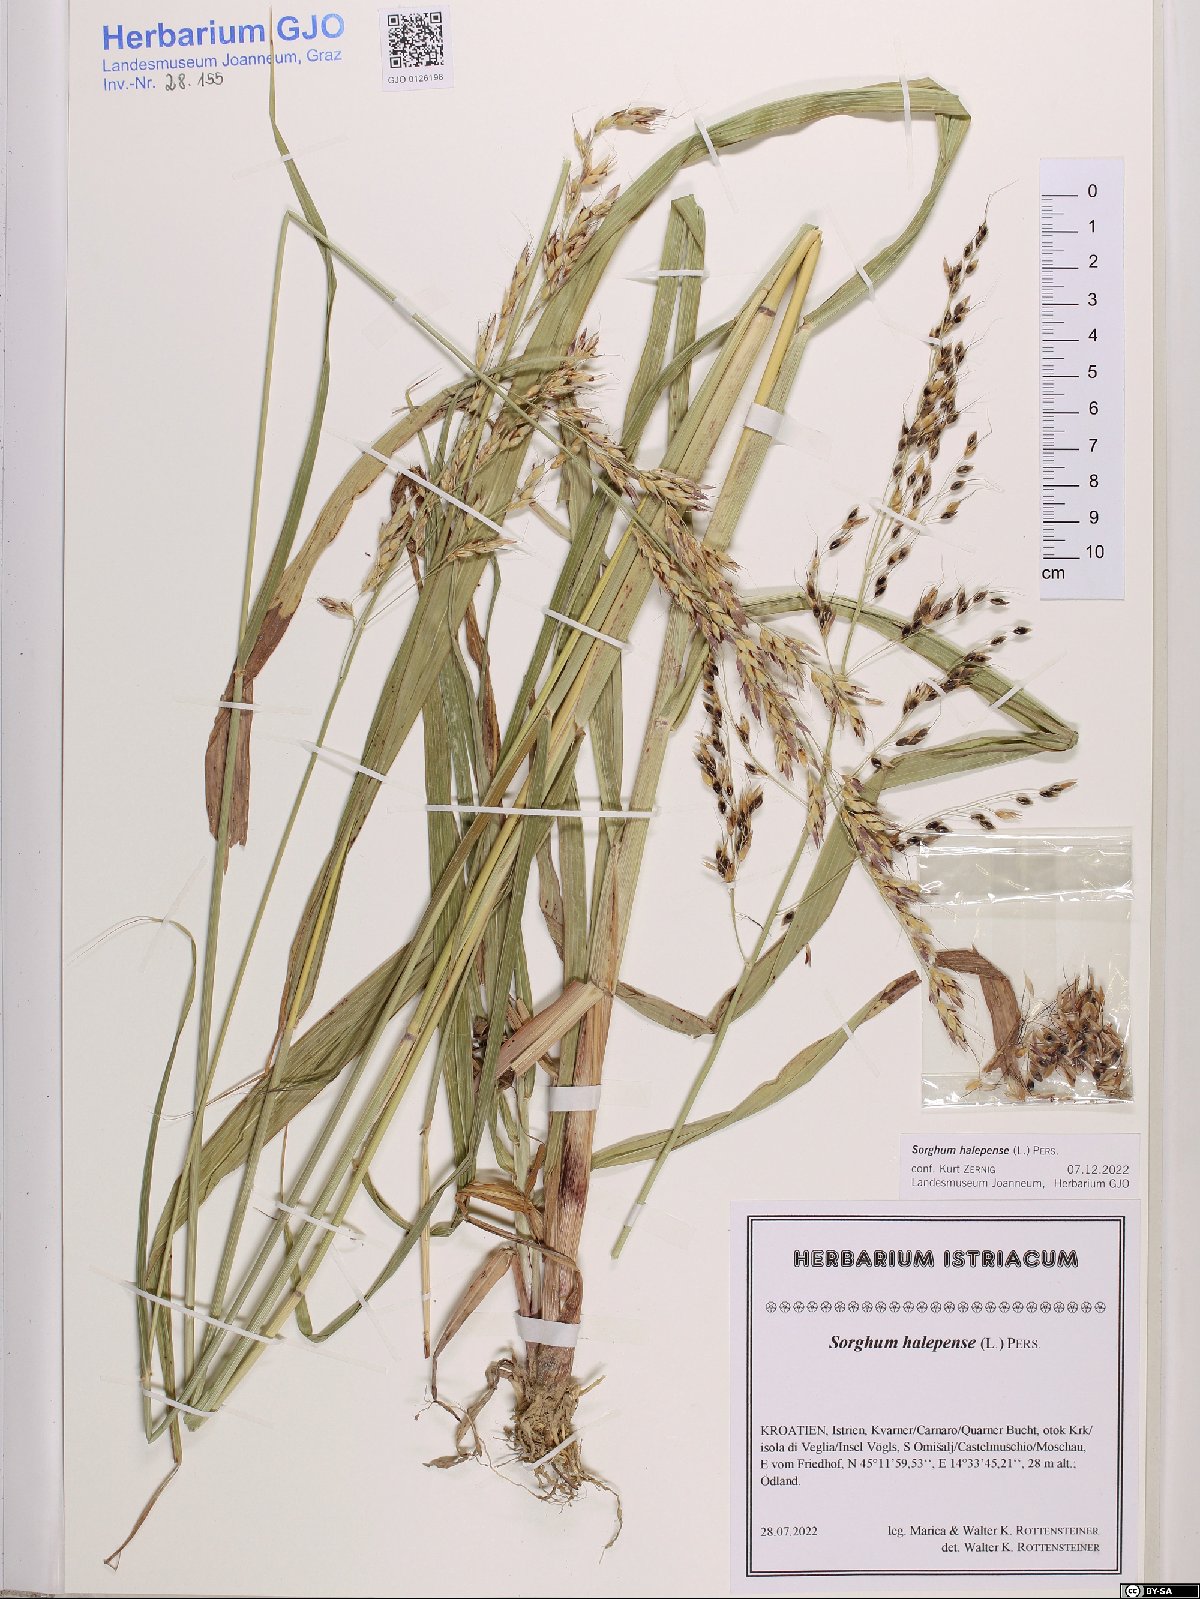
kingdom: Plantae
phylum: Tracheophyta
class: Liliopsida
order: Poales
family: Poaceae
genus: Sorghum
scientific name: Sorghum halepense
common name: Johnson-grass
